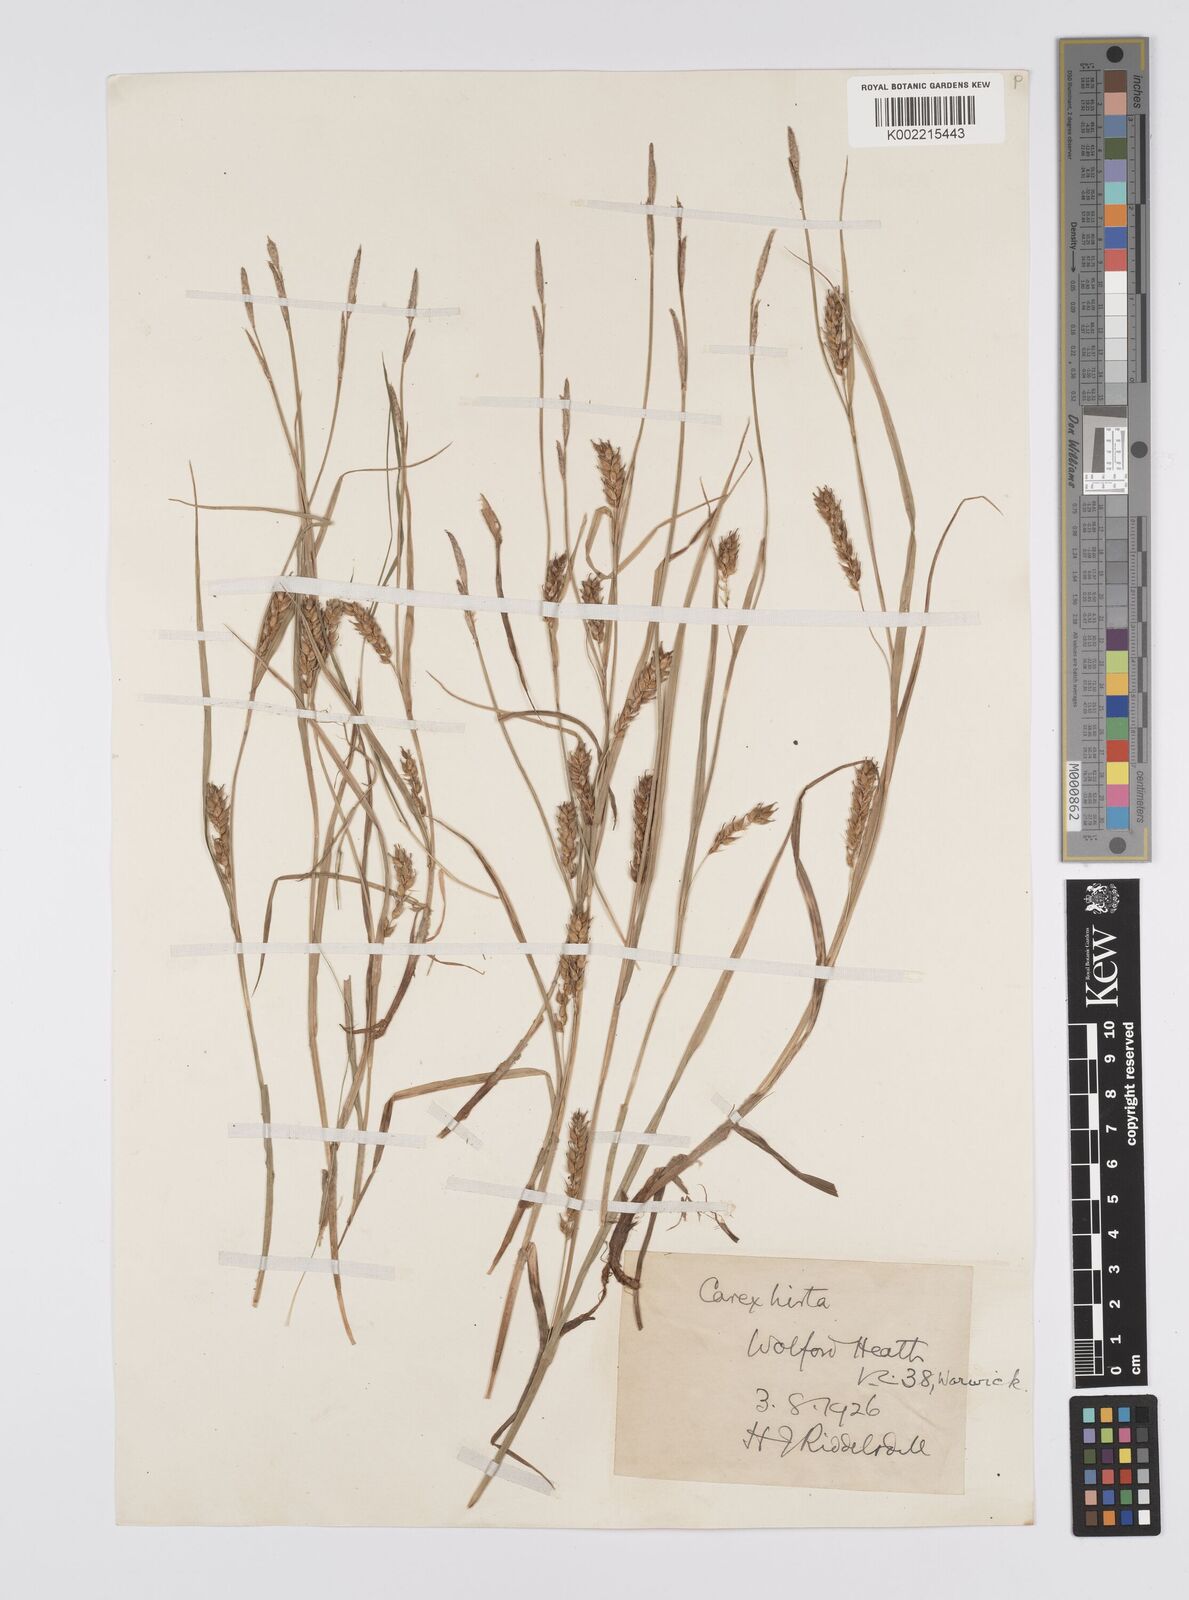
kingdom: Plantae
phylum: Tracheophyta
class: Liliopsida
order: Poales
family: Cyperaceae
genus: Carex
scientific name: Carex hirta
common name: Hairy sedge
